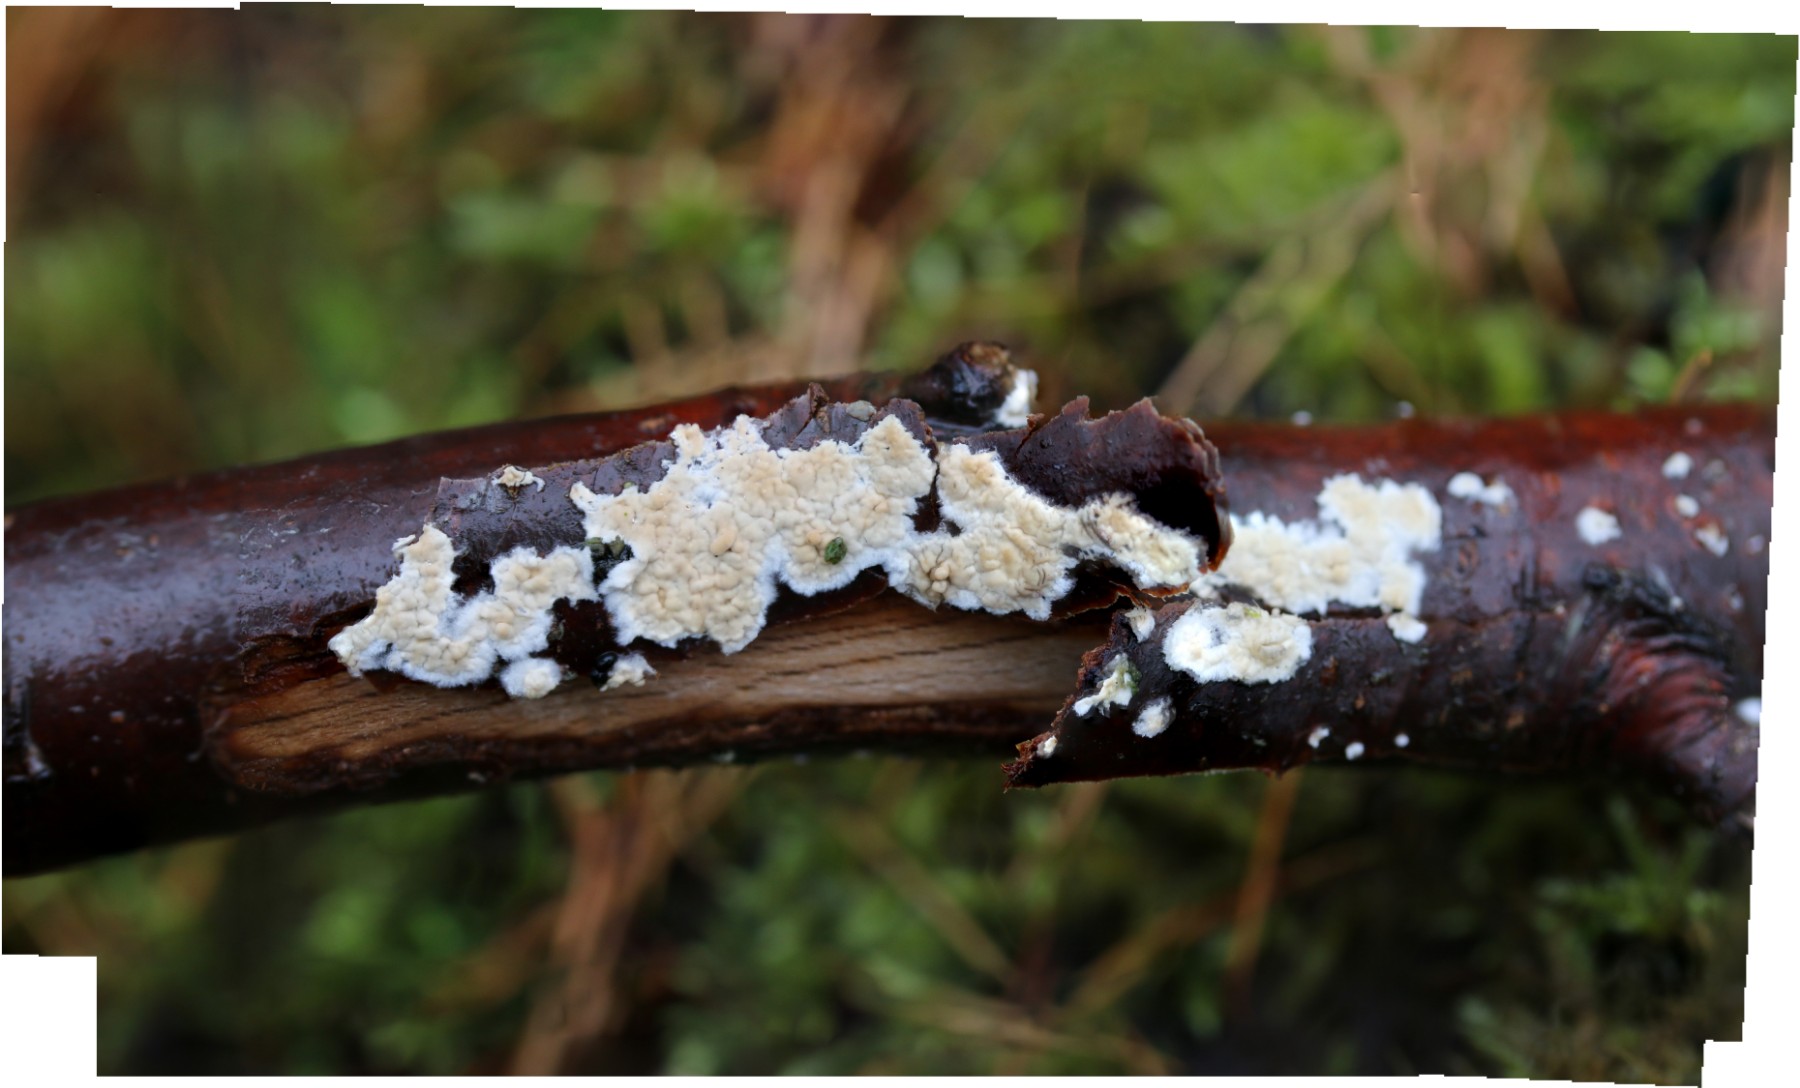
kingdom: Fungi
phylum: Basidiomycota
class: Agaricomycetes
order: Agaricales
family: Physalacriaceae
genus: Cylindrobasidium
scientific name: Cylindrobasidium evolvens
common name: sprækkehinde
